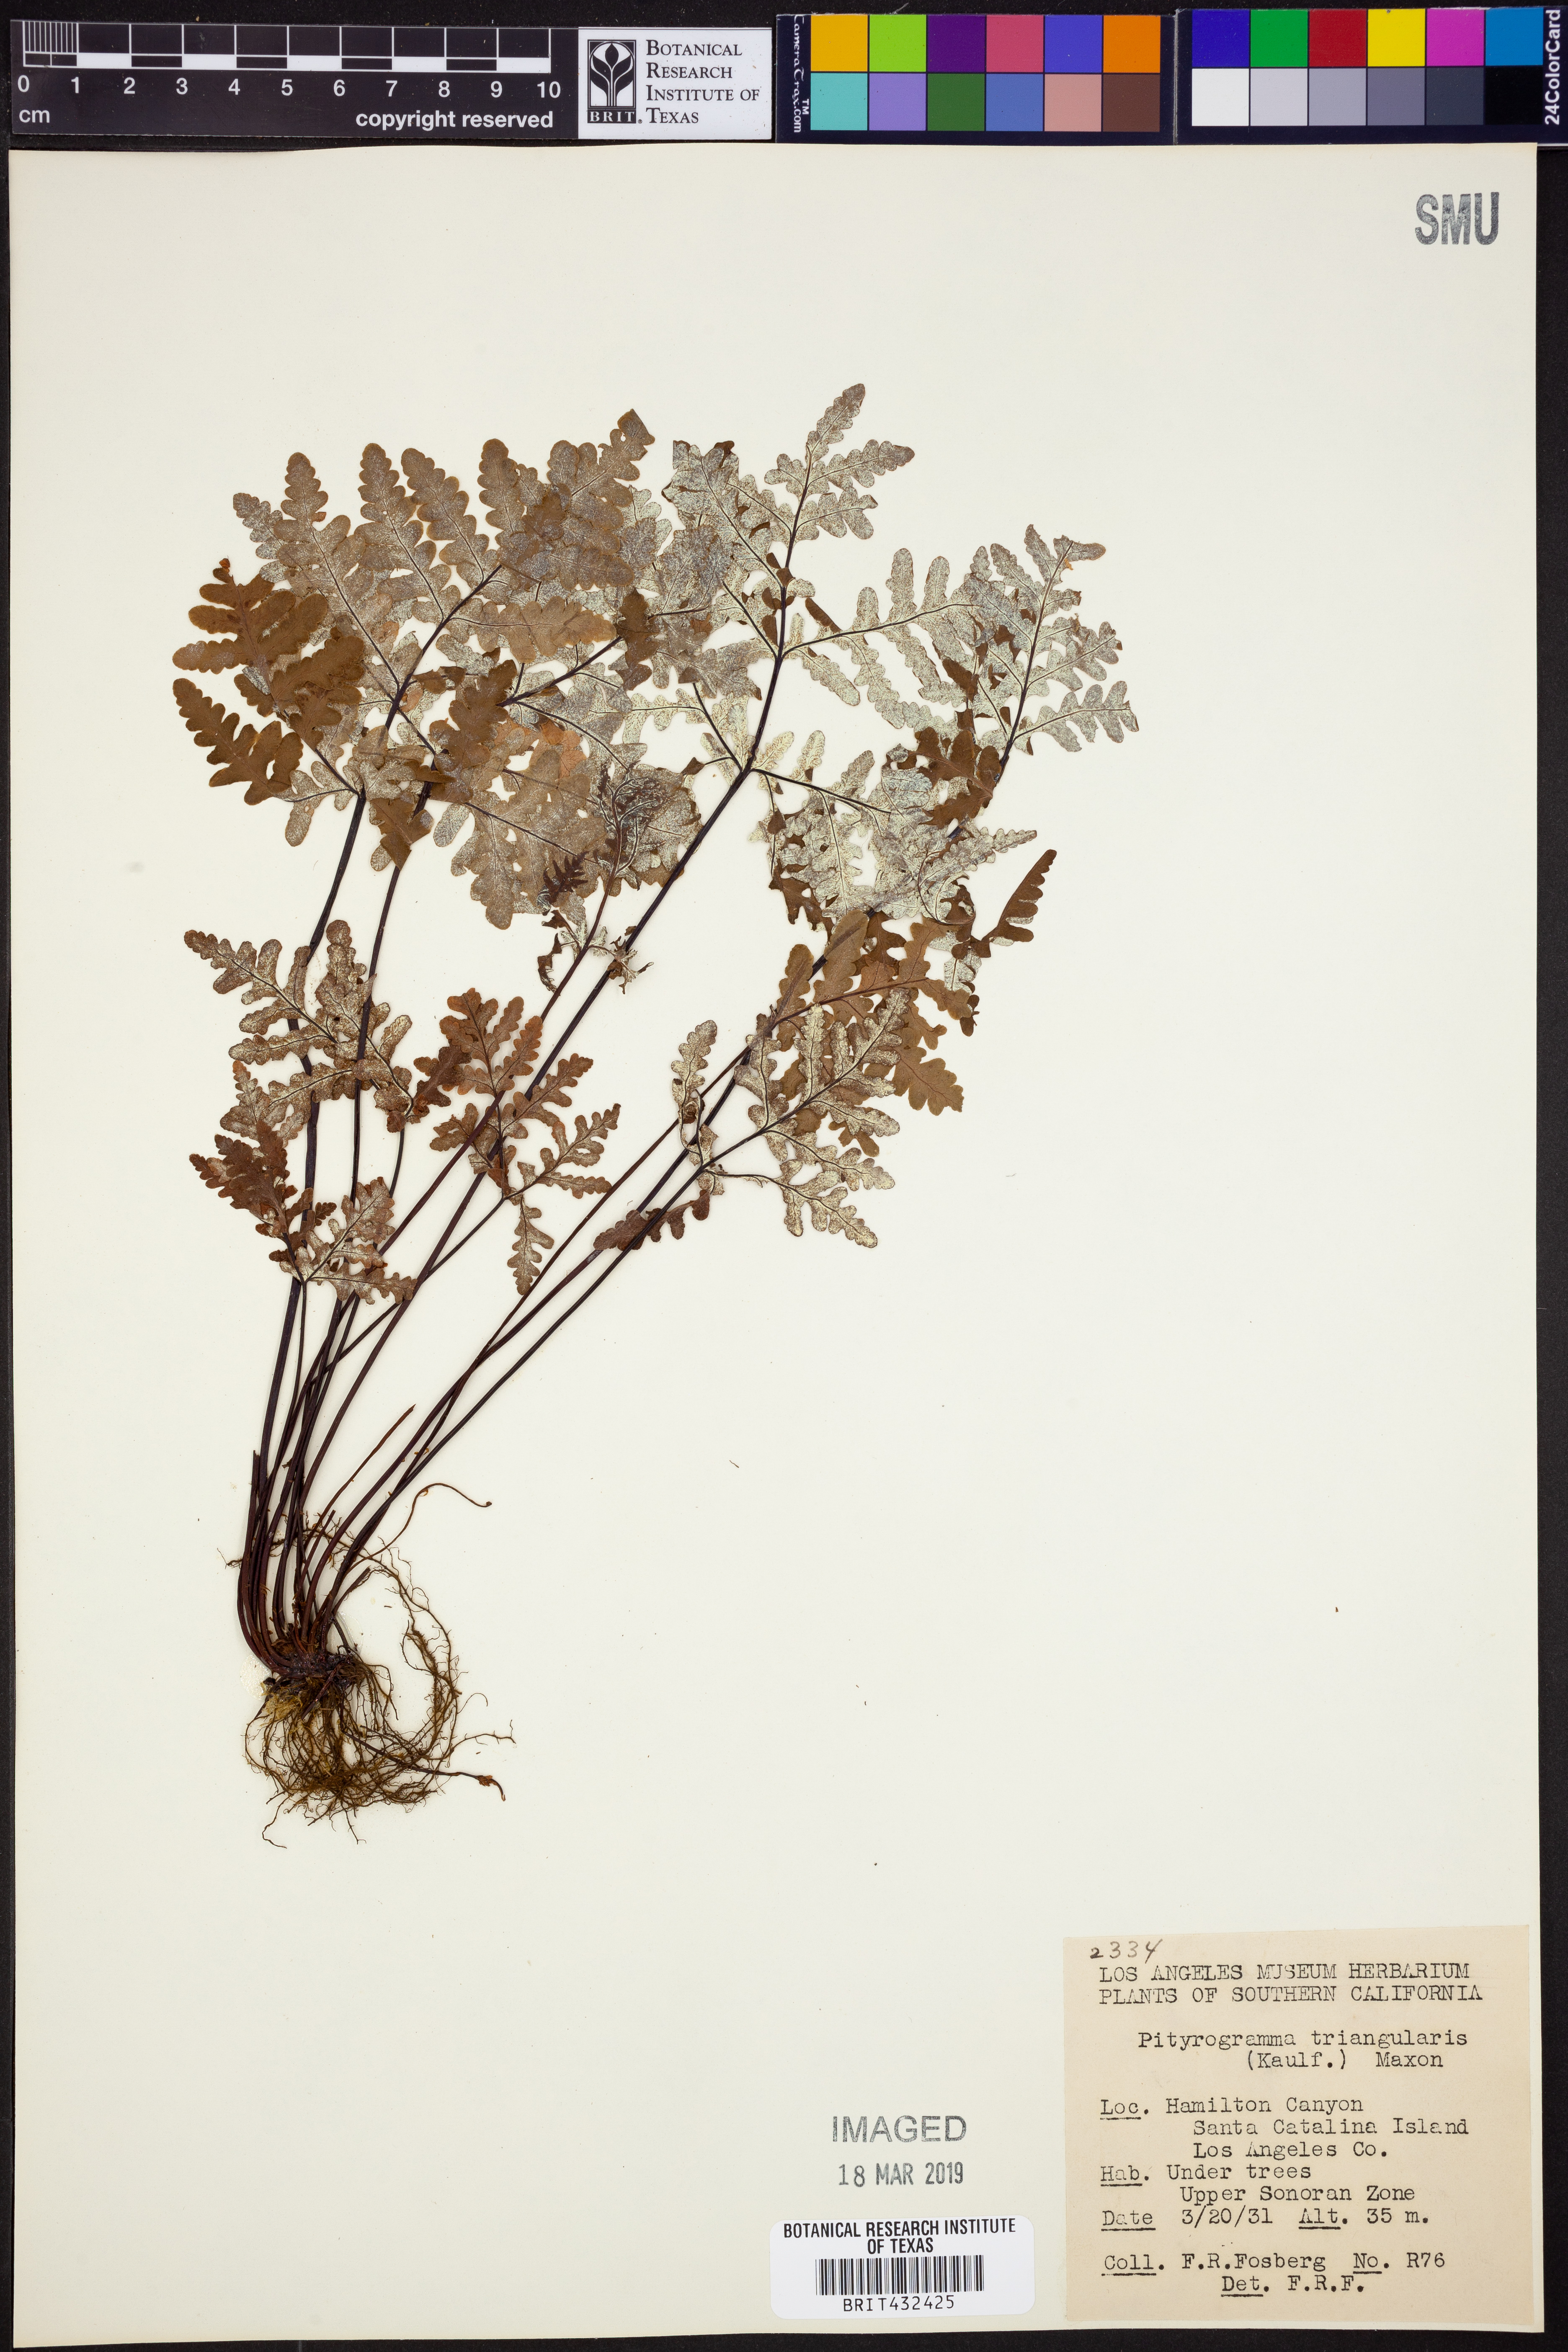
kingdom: Plantae
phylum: Tracheophyta
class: Polypodiopsida
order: Polypodiales
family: Pteridaceae
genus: Pentagramma
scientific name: Pentagramma triangularis
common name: Gold fern
